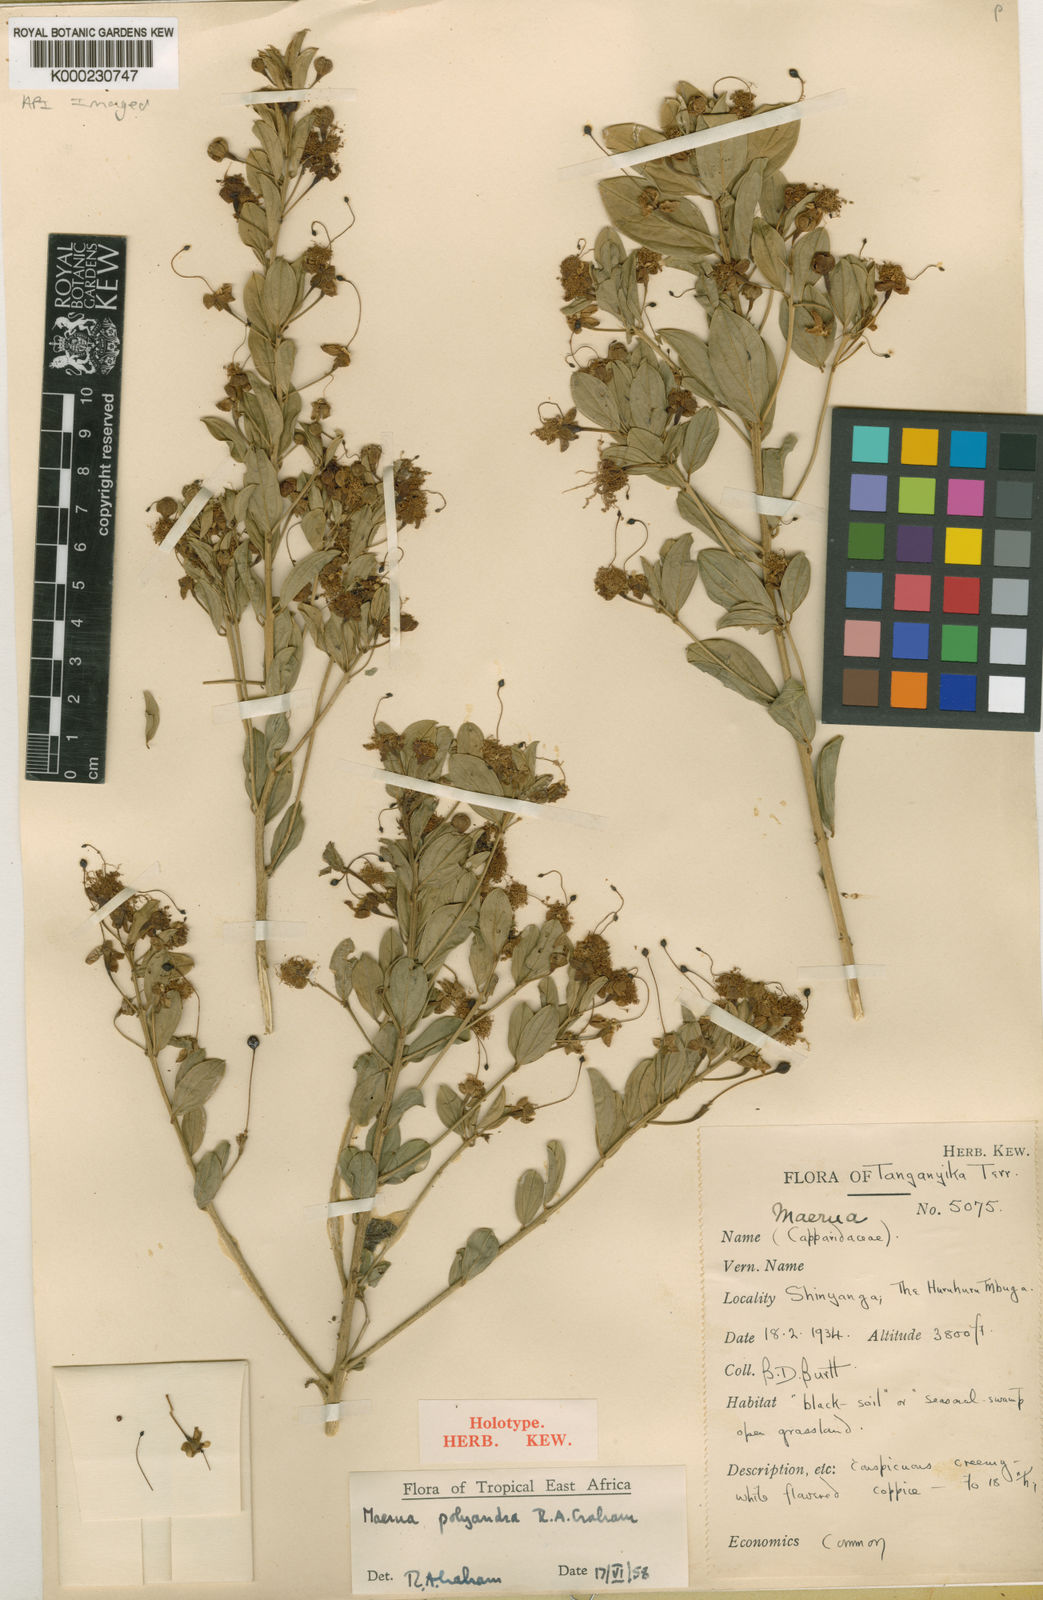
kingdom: Plantae
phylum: Tracheophyta
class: Magnoliopsida
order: Brassicales
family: Capparaceae
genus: Maerua
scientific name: Maerua polyandra
